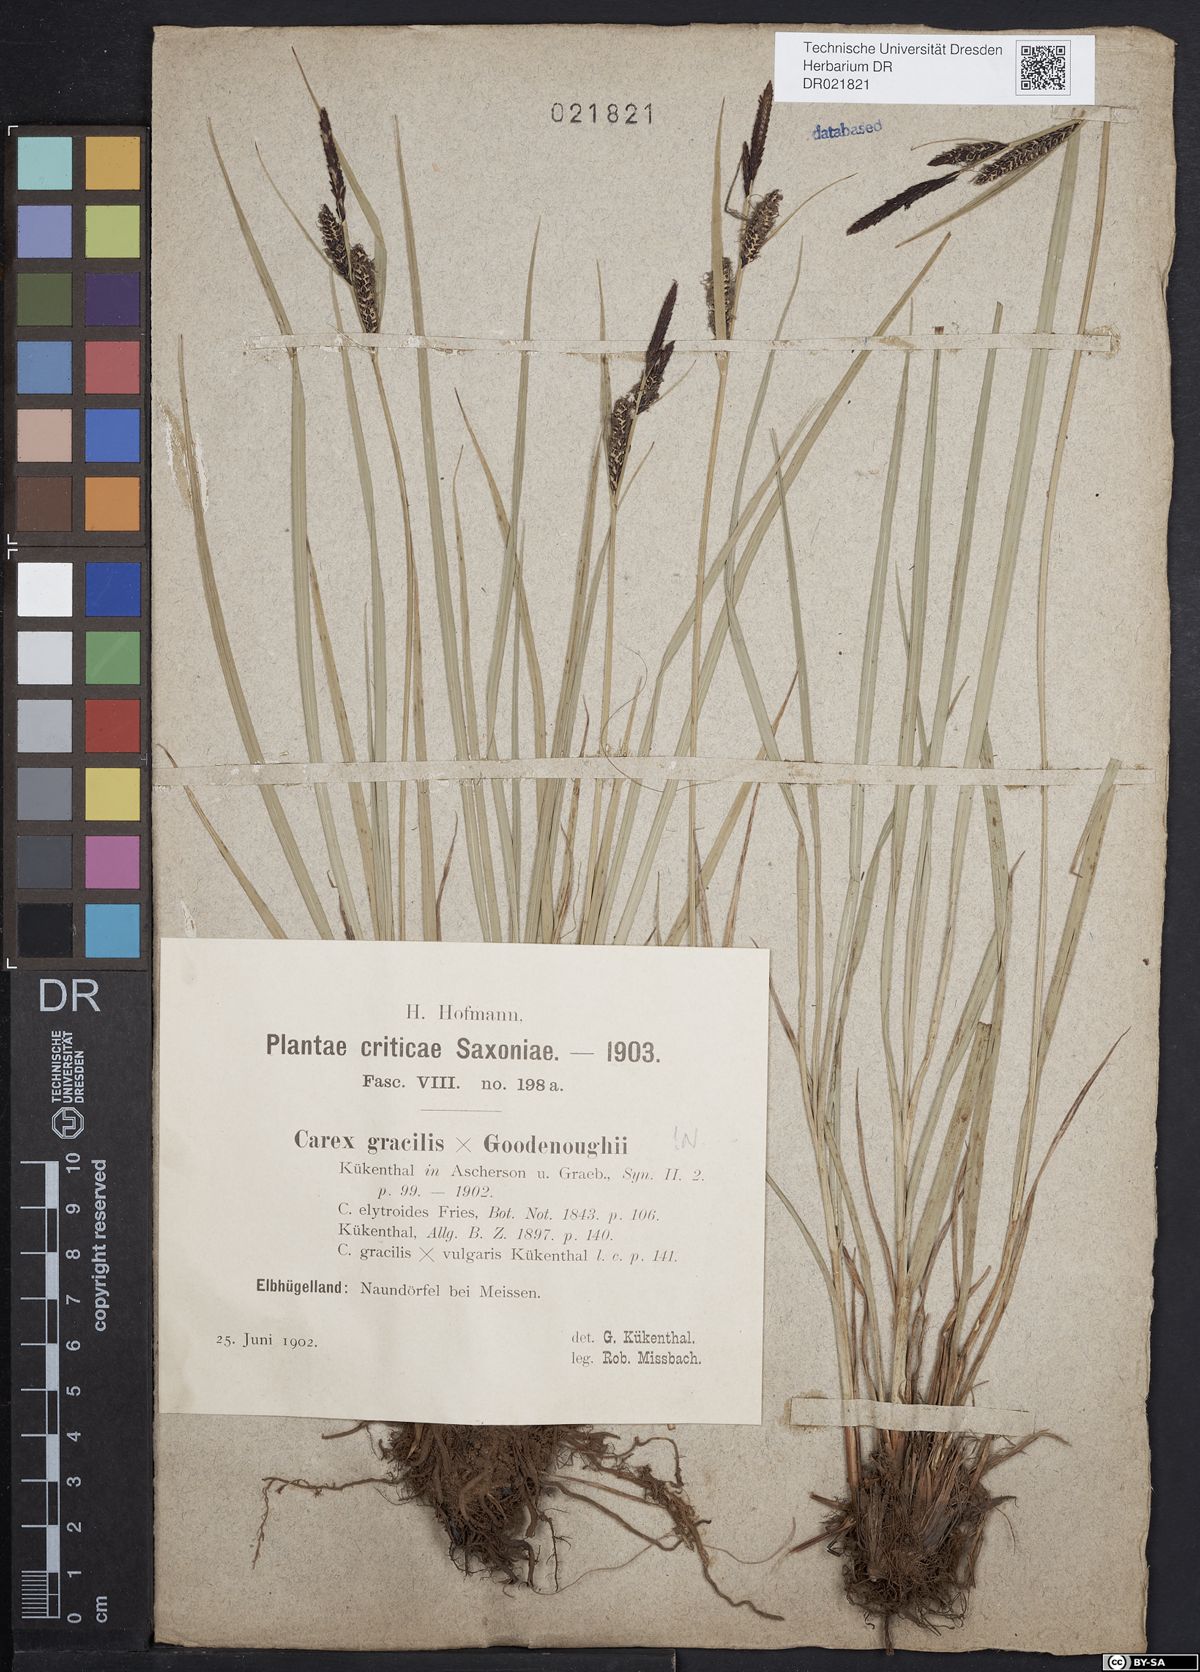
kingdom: Plantae
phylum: Tracheophyta
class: Liliopsida
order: Poales
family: Cyperaceae
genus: Carex
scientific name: Carex elytroides
